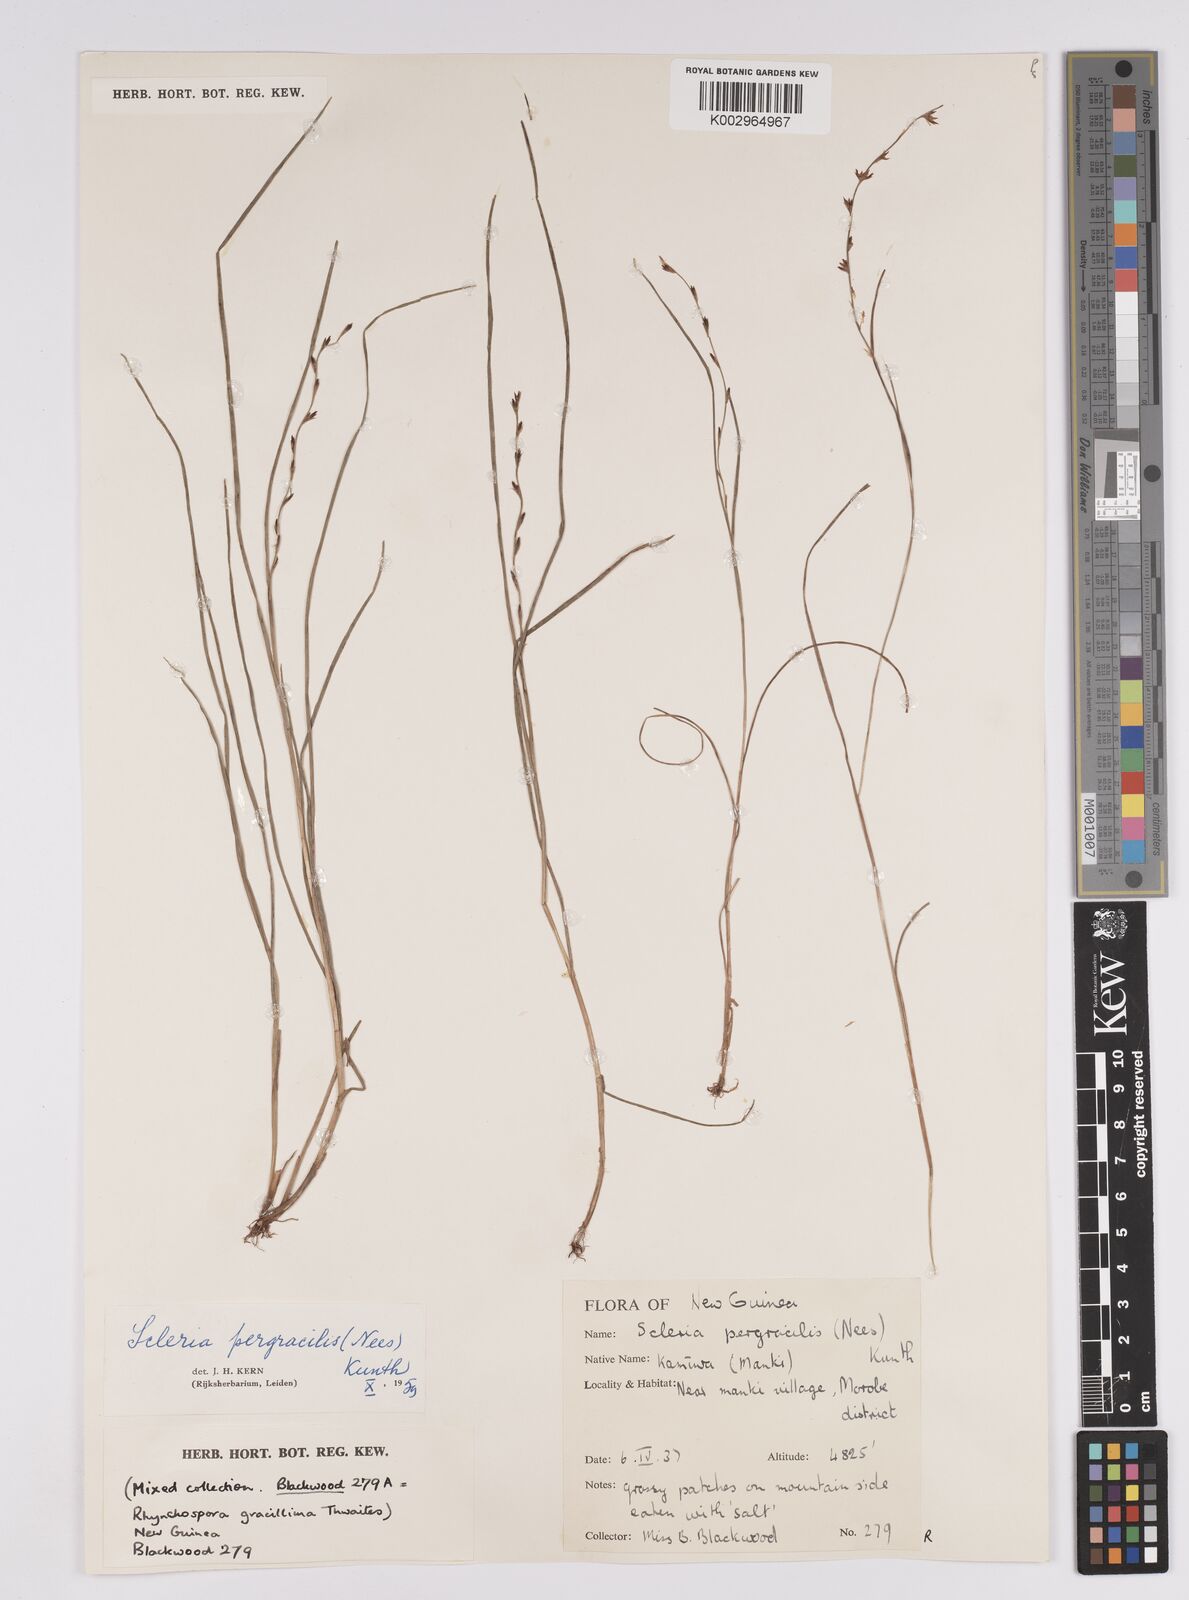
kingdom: Plantae
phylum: Tracheophyta
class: Liliopsida
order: Poales
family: Cyperaceae
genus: Scleria
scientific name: Scleria pergracilis
